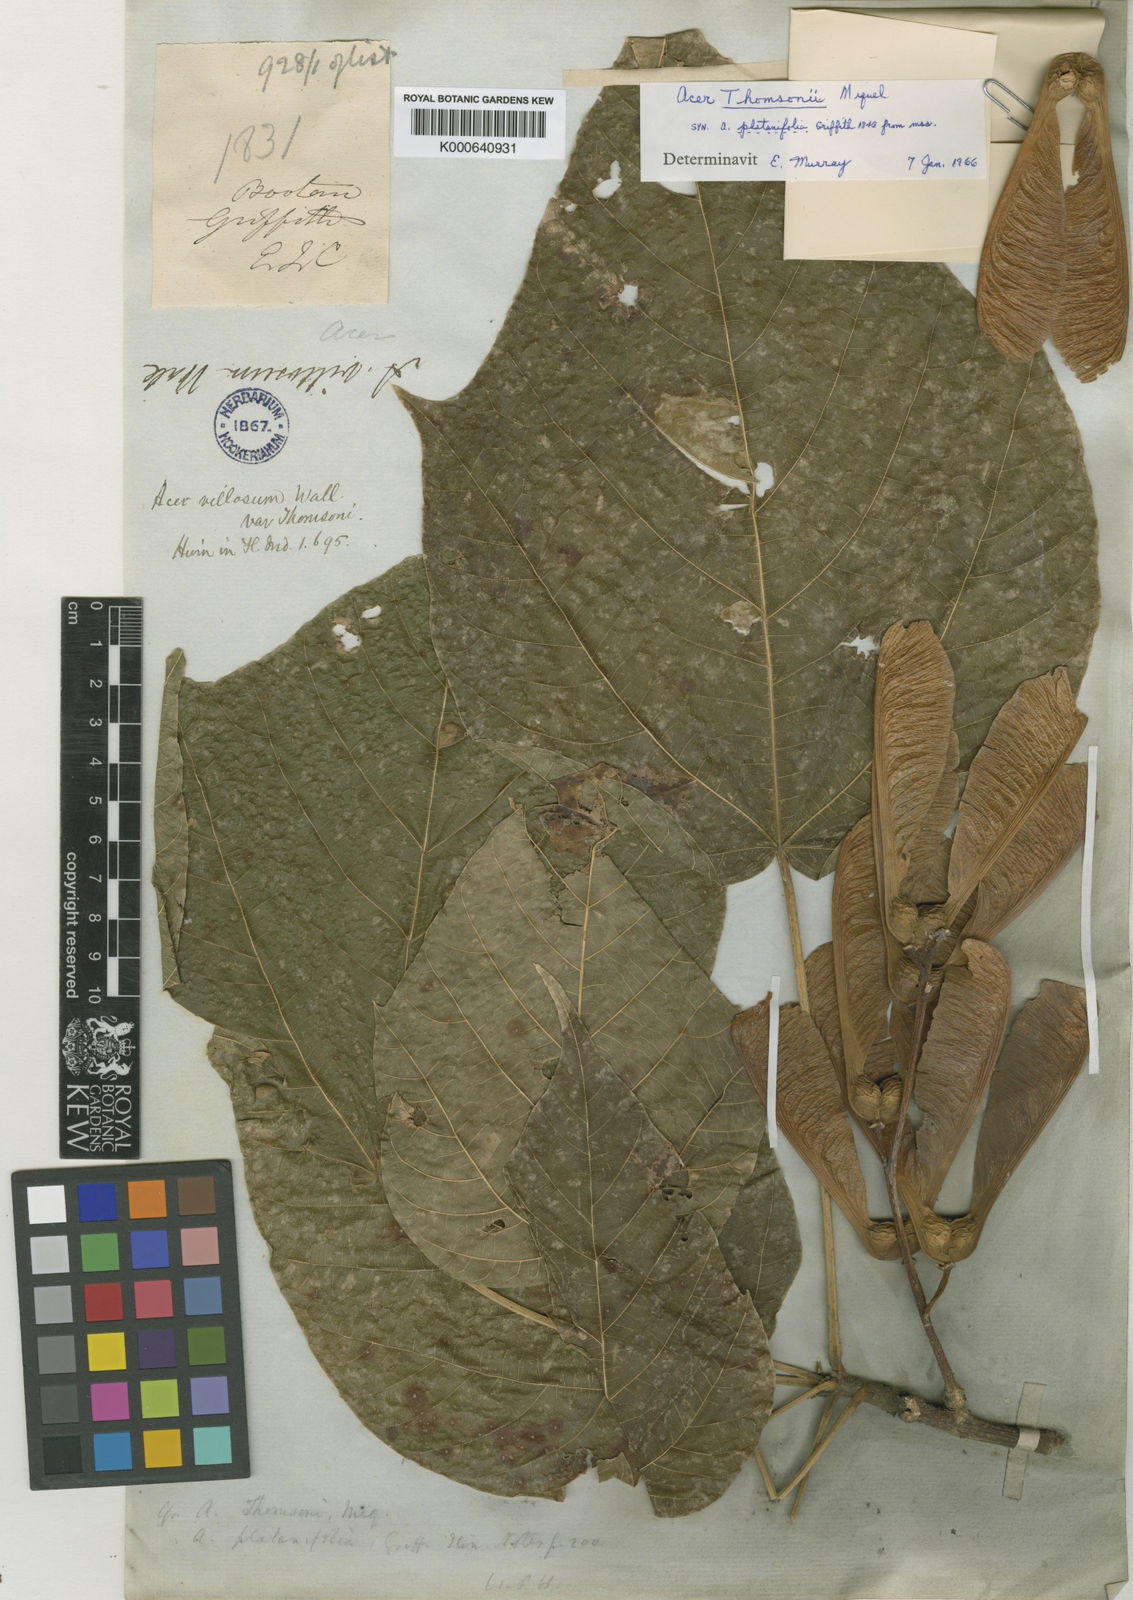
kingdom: Plantae
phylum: Tracheophyta
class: Magnoliopsida
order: Sapindales
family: Sapindaceae
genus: Acer
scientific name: Acer
